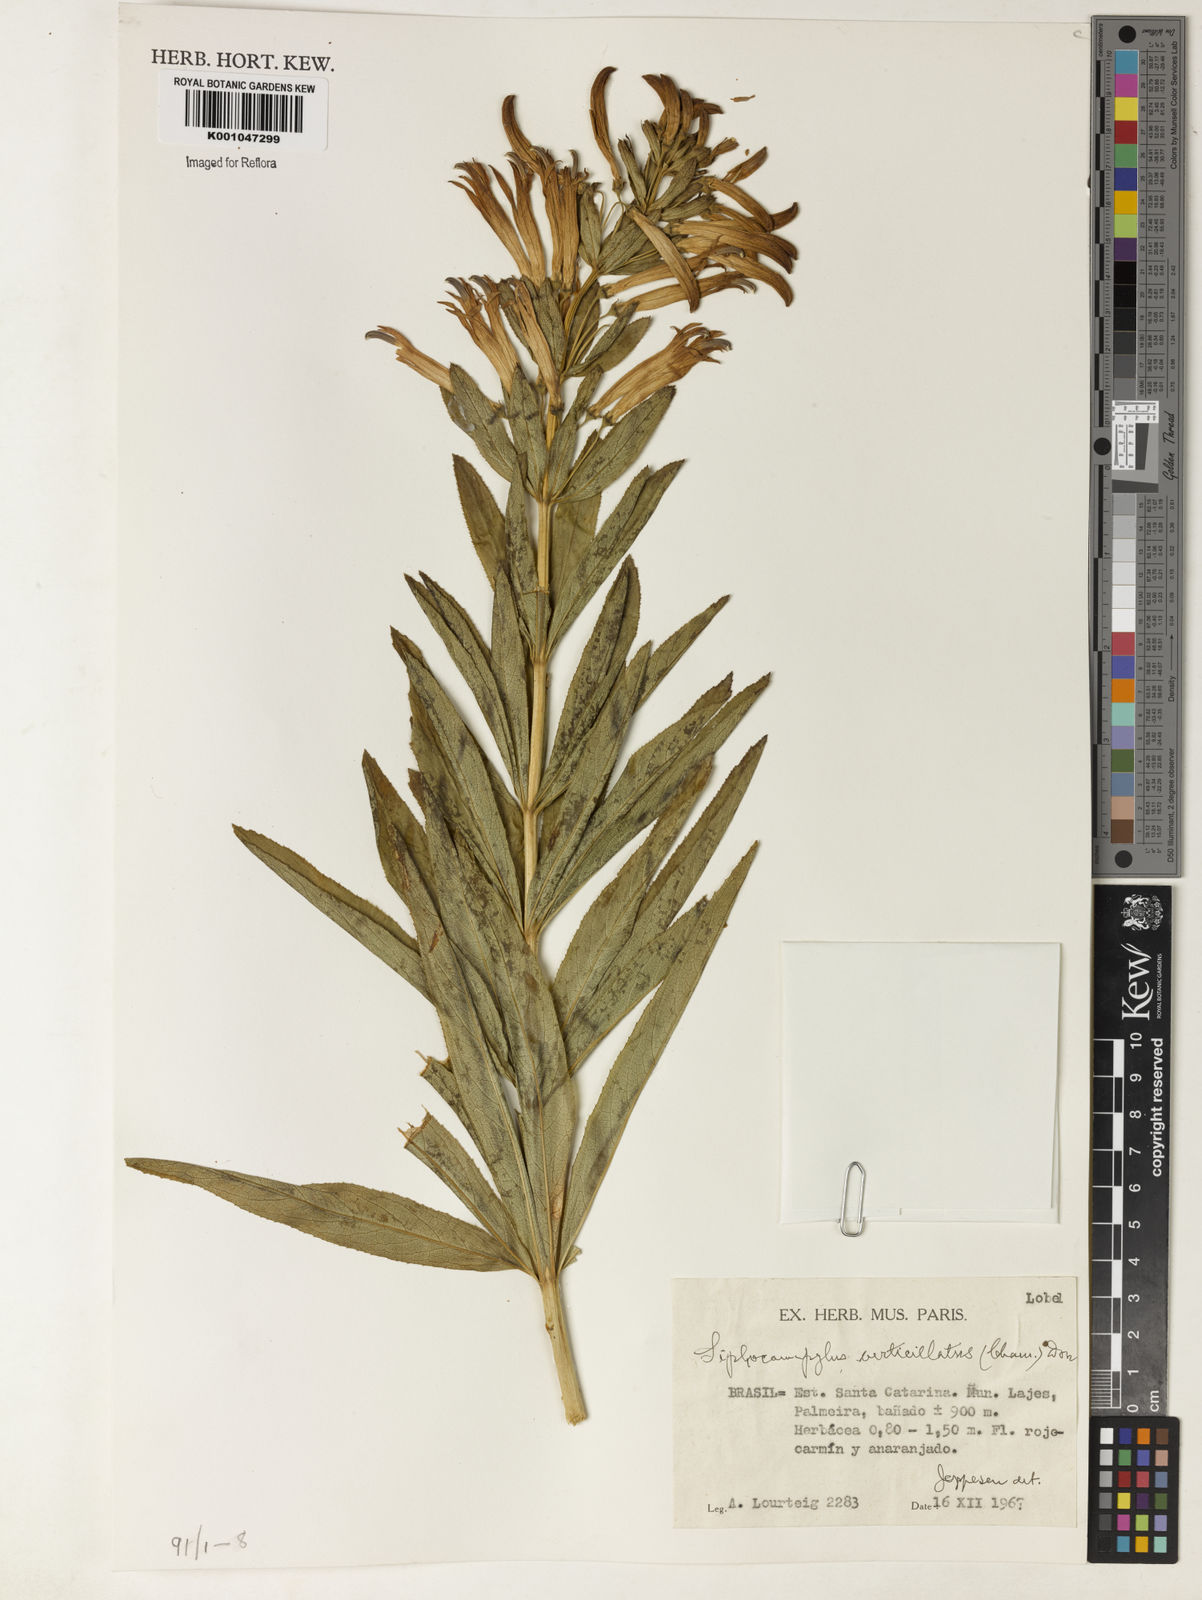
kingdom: Plantae
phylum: Tracheophyta
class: Magnoliopsida
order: Asterales
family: Campanulaceae
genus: Siphocampylus
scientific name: Siphocampylus verticillatus
